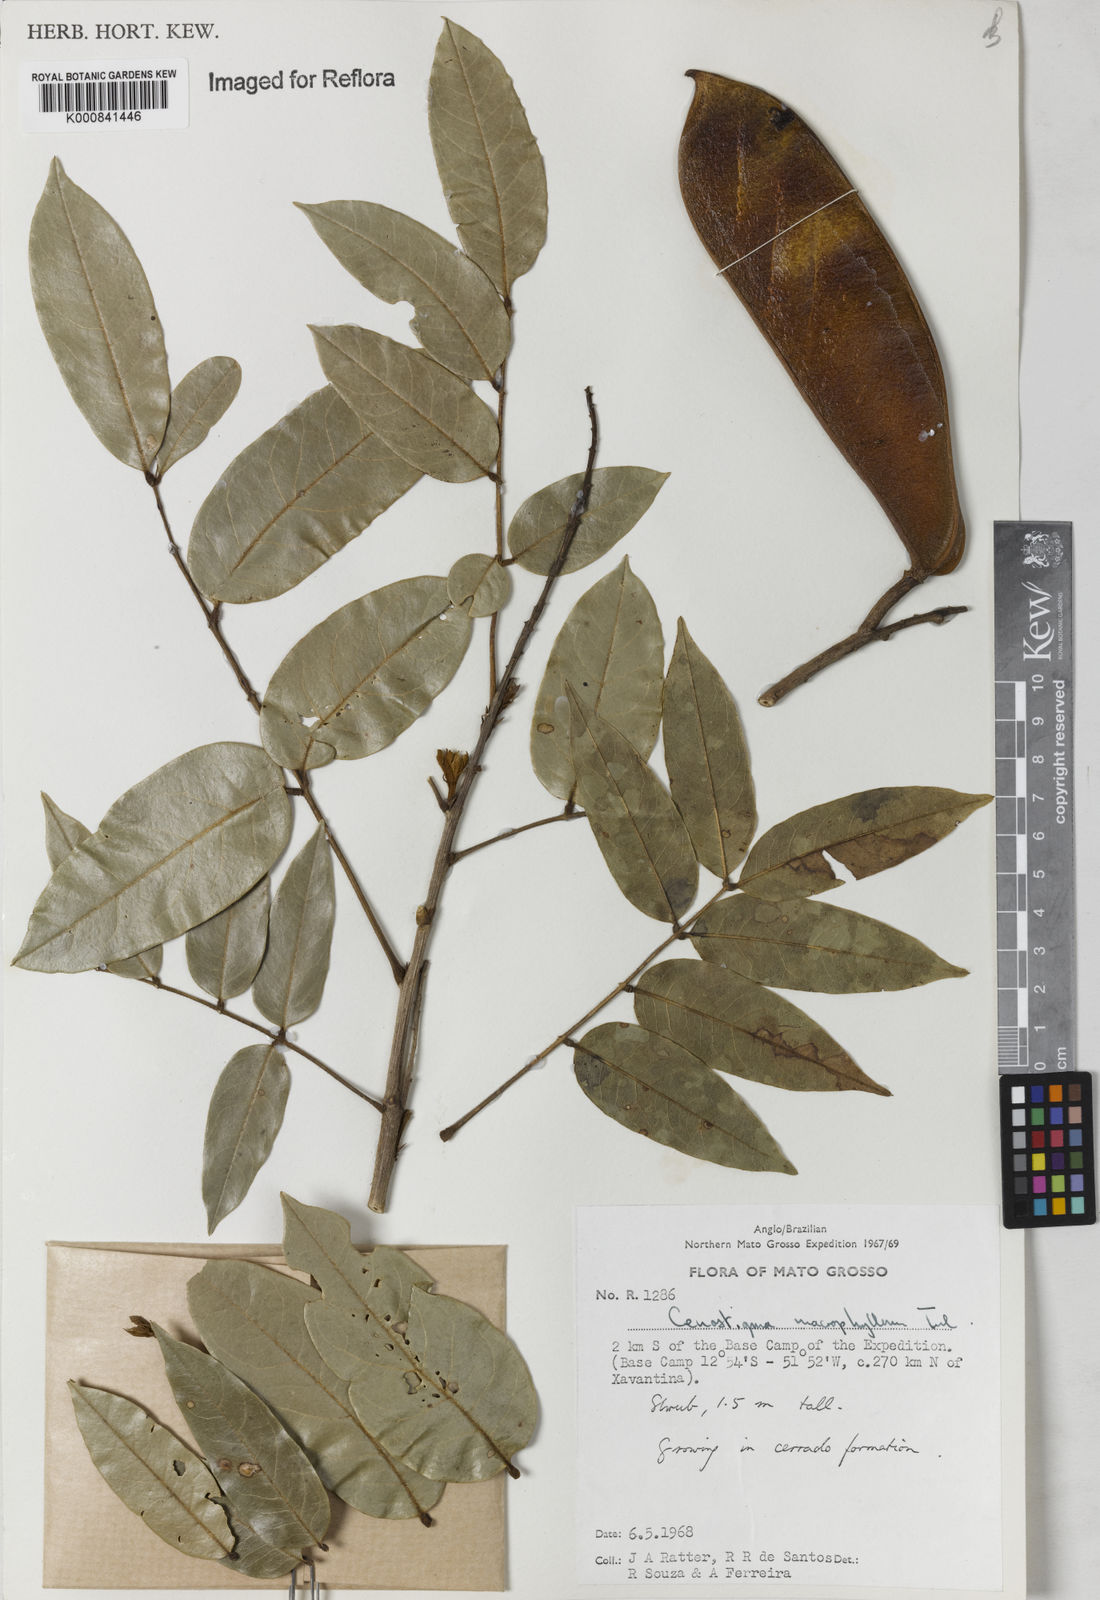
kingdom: Plantae
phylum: Tracheophyta
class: Magnoliopsida
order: Fabales
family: Fabaceae
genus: Cenostigma
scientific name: Cenostigma macrophyllum
